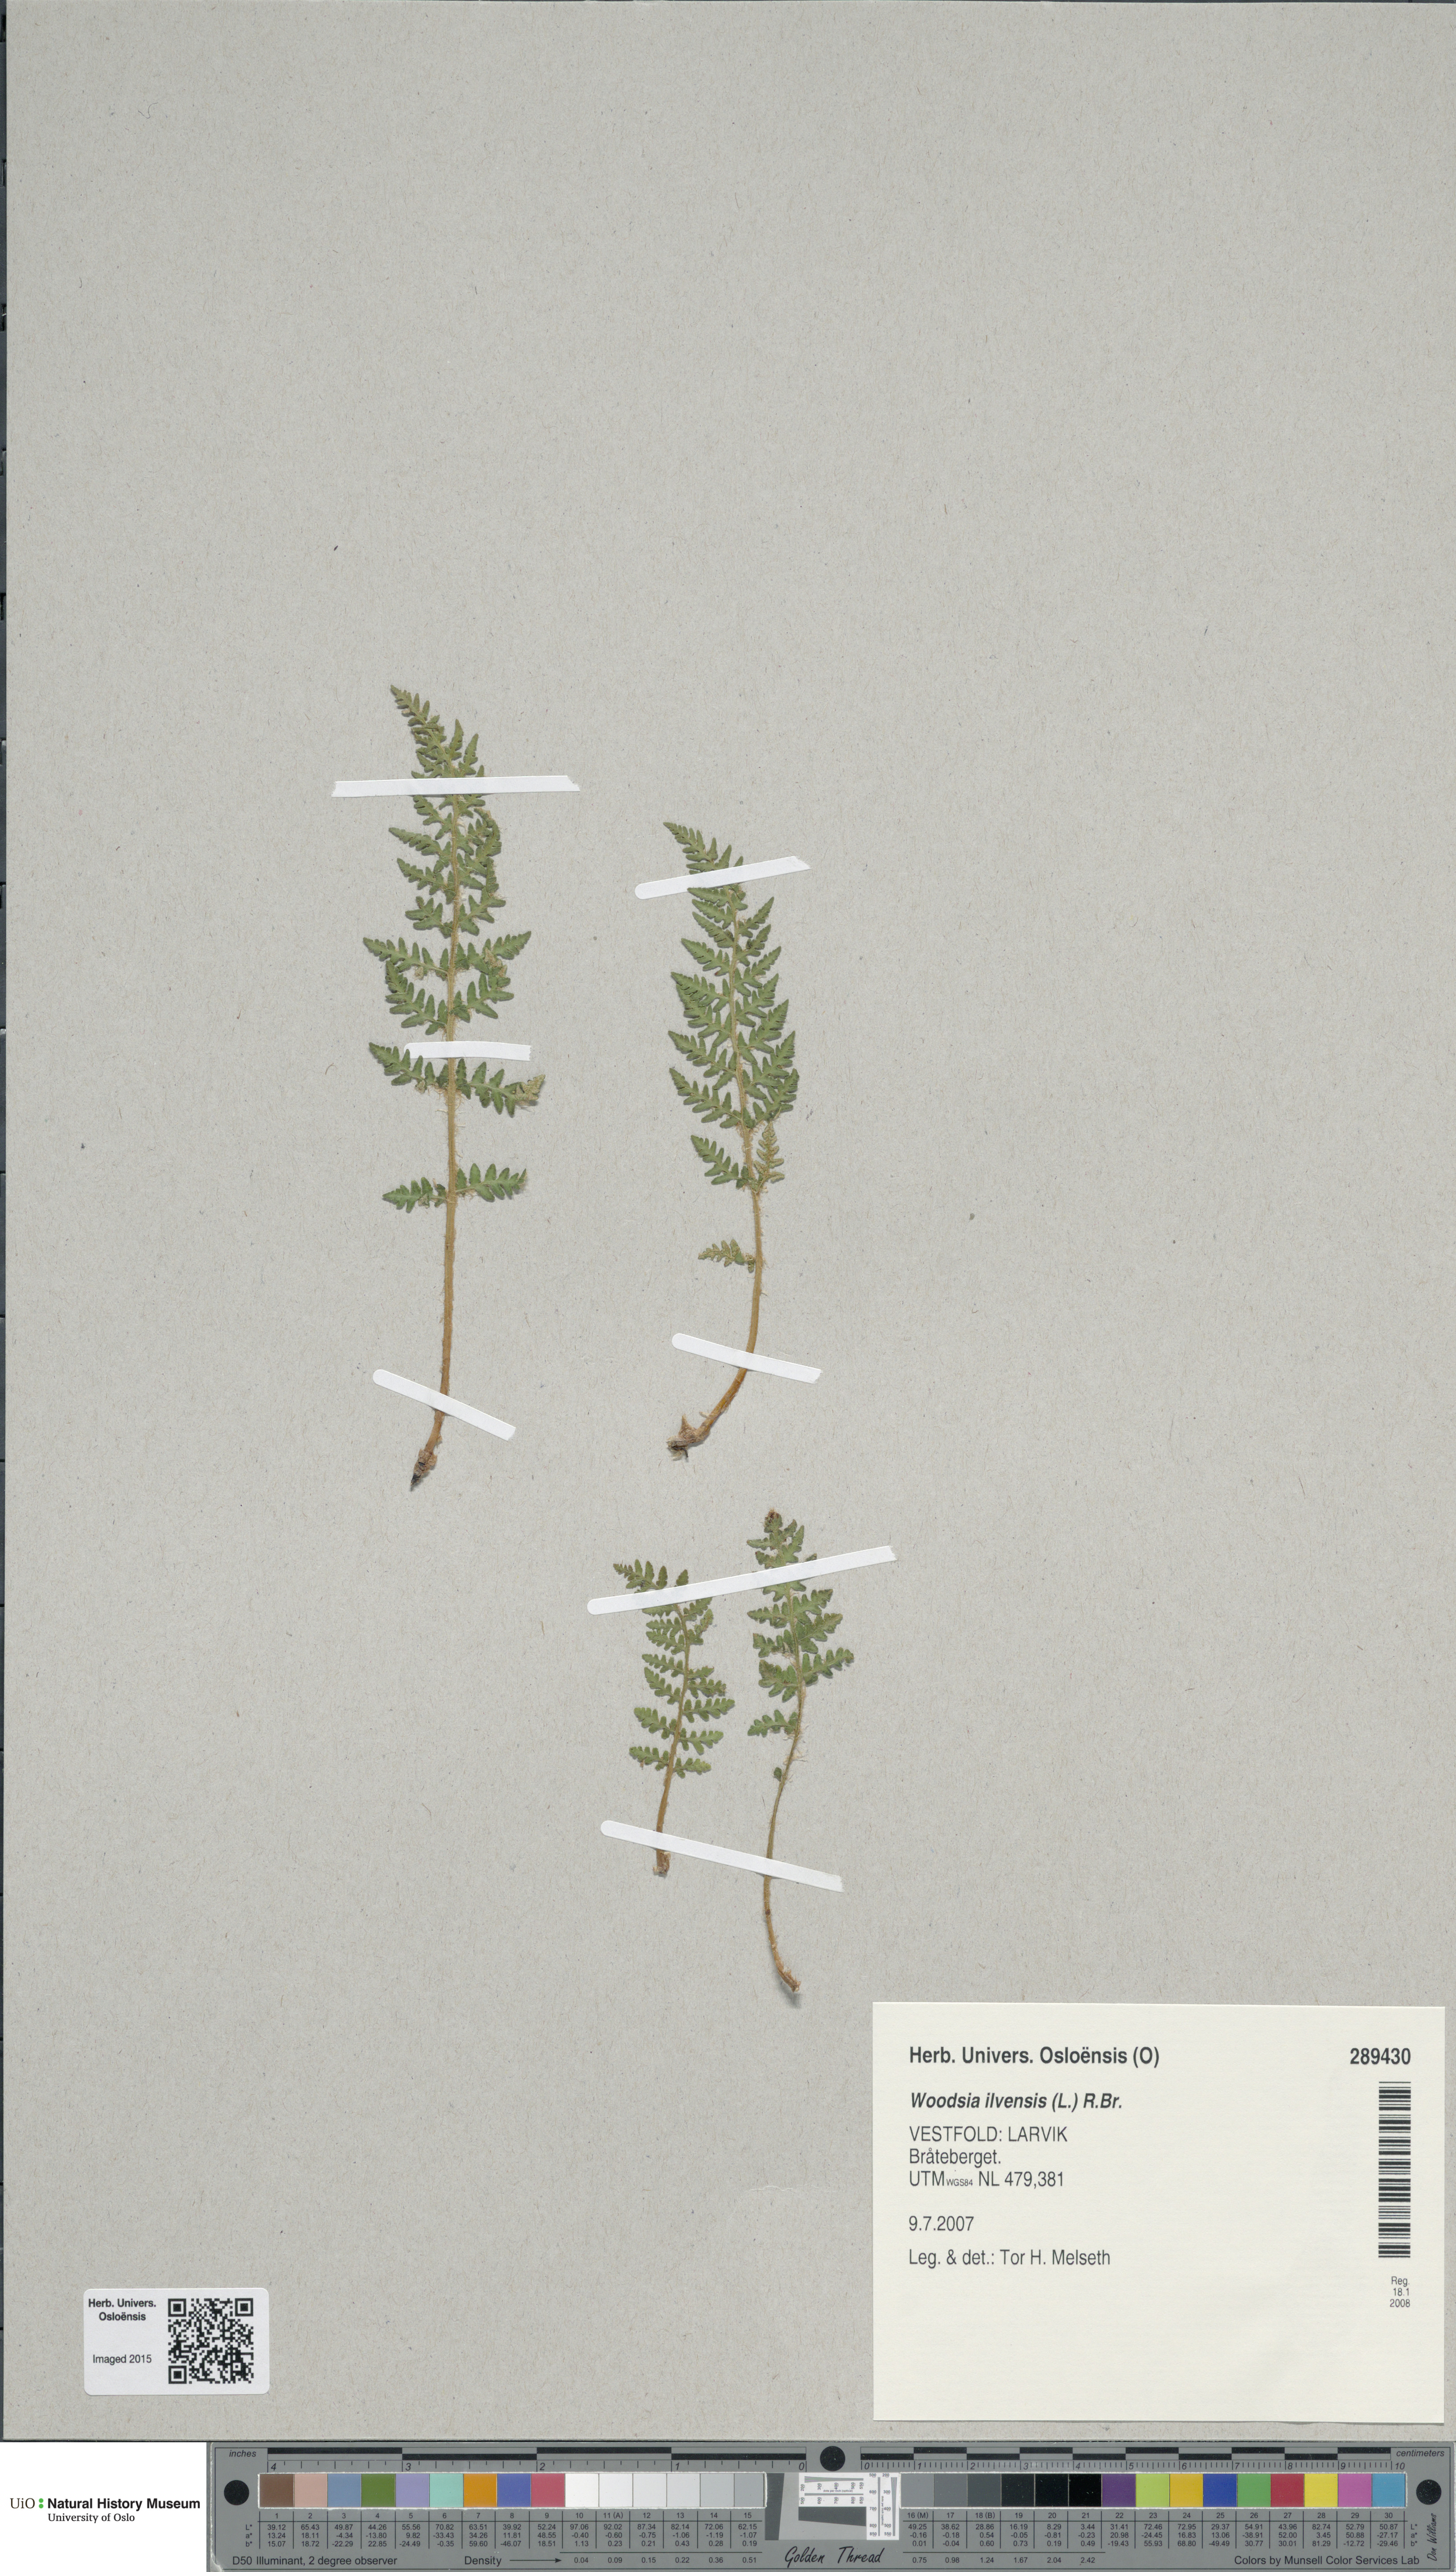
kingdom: Plantae
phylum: Tracheophyta
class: Polypodiopsida
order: Polypodiales
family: Woodsiaceae
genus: Woodsia
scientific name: Woodsia ilvensis
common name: Fragrant woodsia
